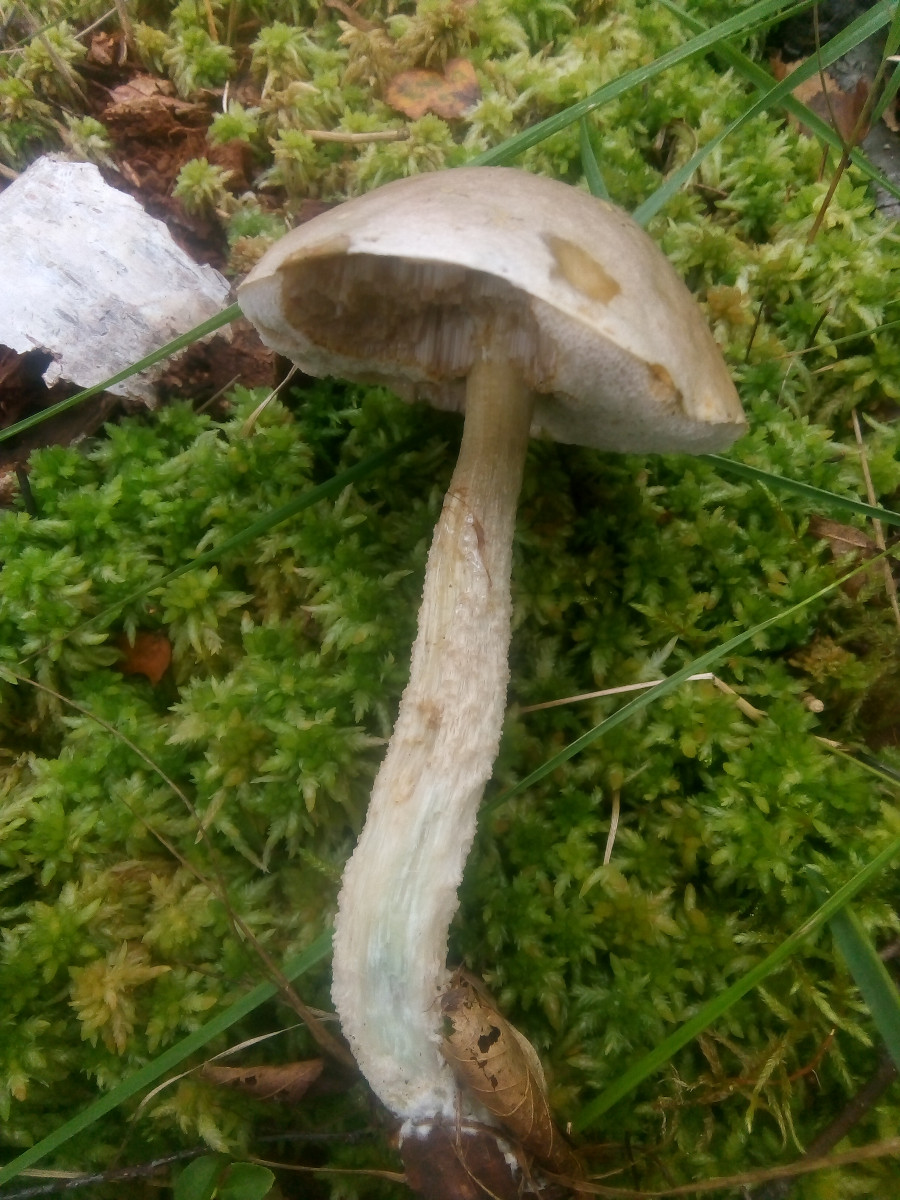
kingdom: Fungi
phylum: Basidiomycota
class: Agaricomycetes
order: Boletales
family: Boletaceae
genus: Leccinum
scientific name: Leccinum scabrum
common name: hvid skælrørhat
